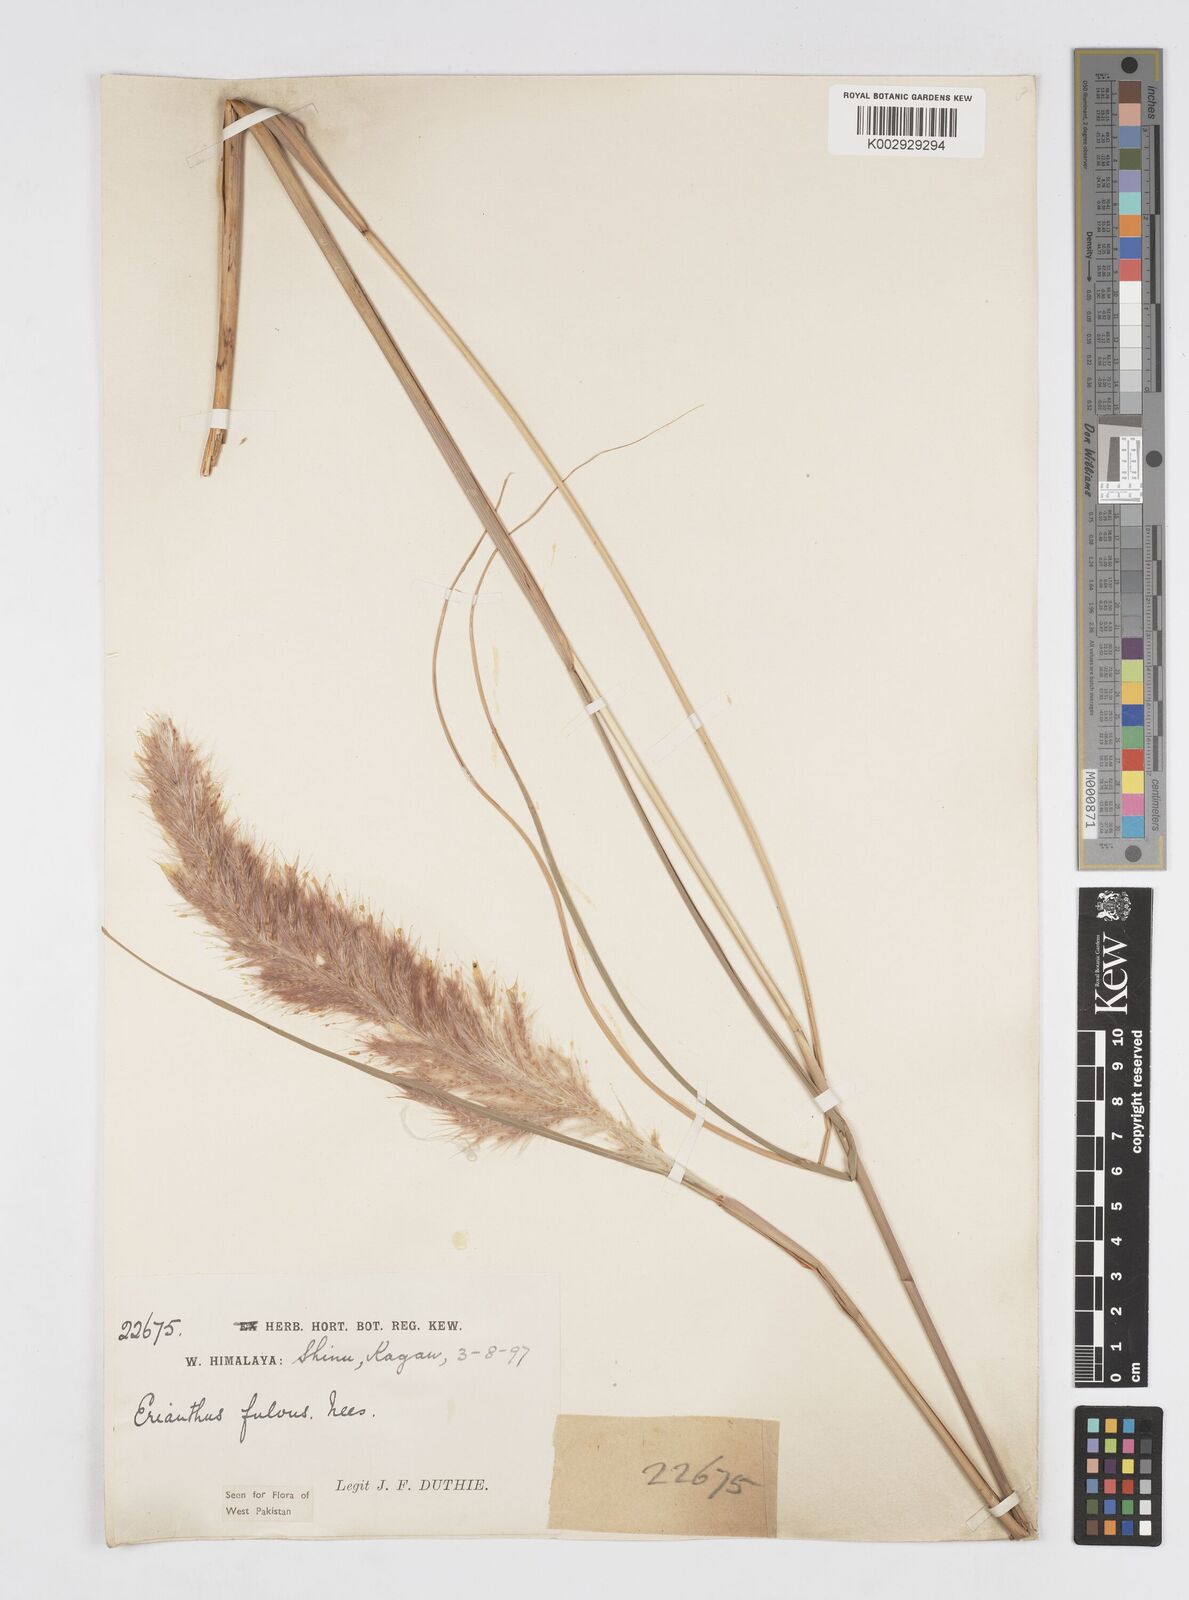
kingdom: Plantae
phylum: Tracheophyta
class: Liliopsida
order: Poales
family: Poaceae
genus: Tripidium
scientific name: Tripidium rufipilum
